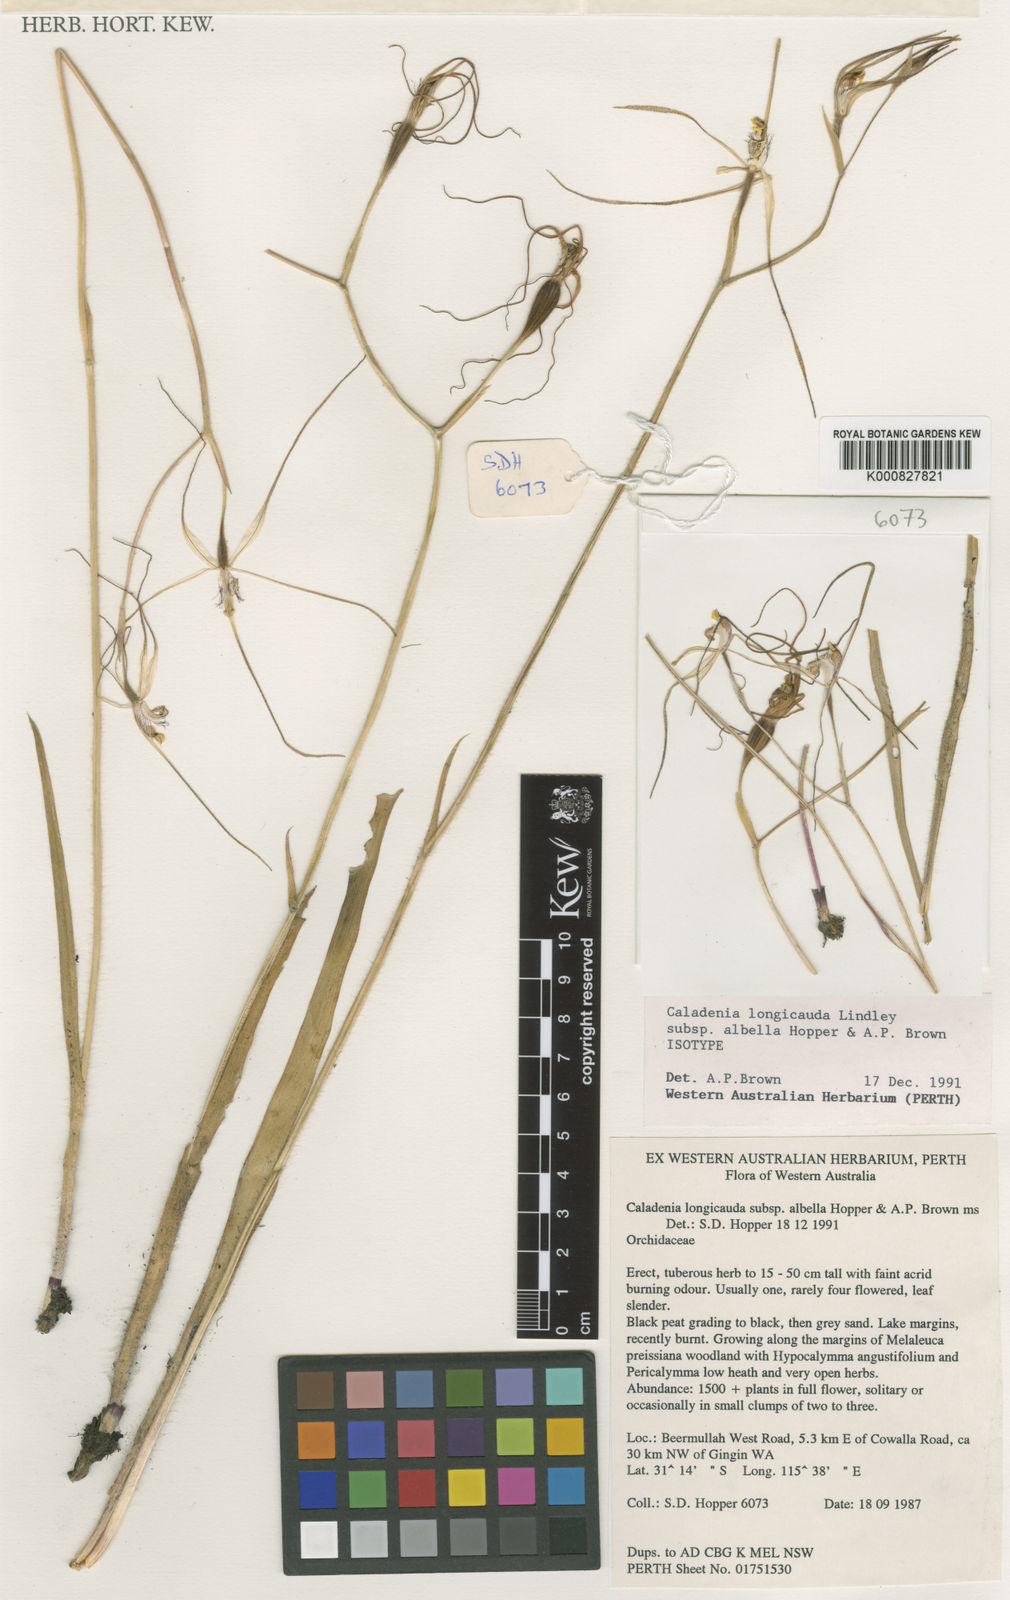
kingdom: Plantae
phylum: Tracheophyta
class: Liliopsida
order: Asparagales
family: Orchidaceae
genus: Caladenia
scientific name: Caladenia longicauda
